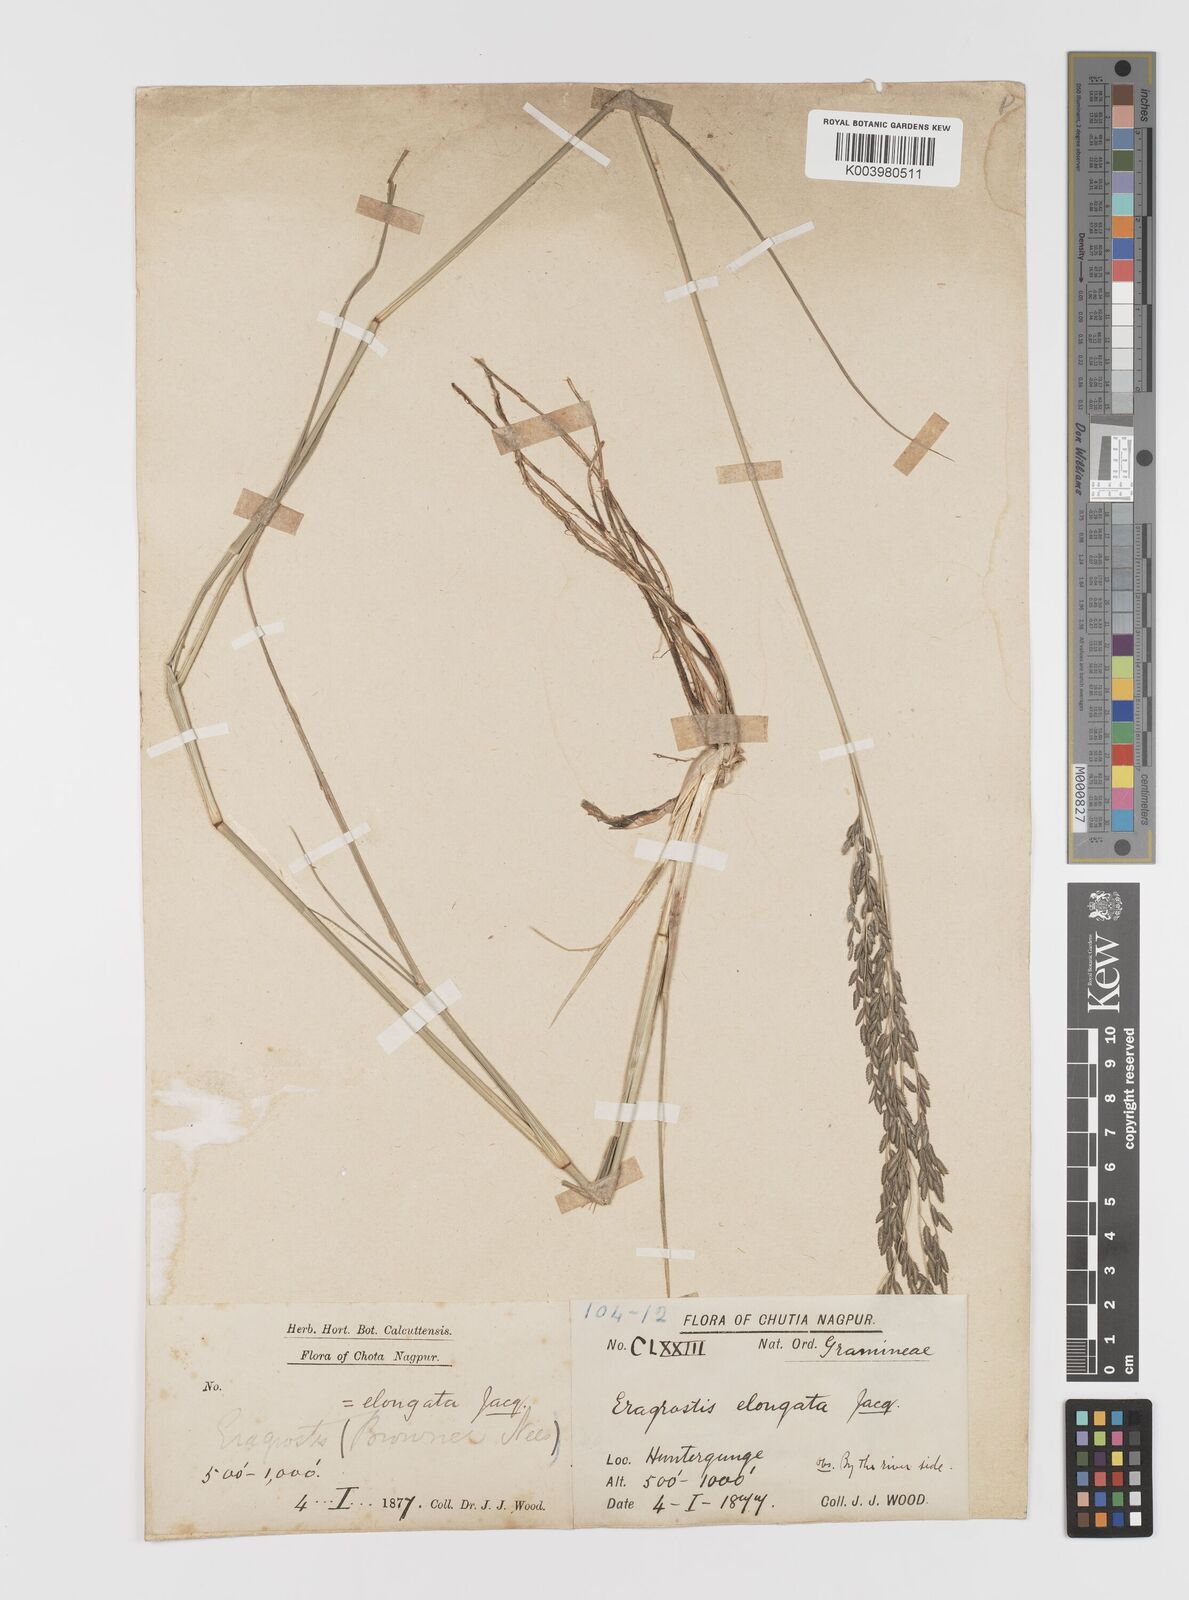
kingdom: Plantae
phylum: Tracheophyta
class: Liliopsida
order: Poales
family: Poaceae
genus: Eragrostis
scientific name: Eragrostis
